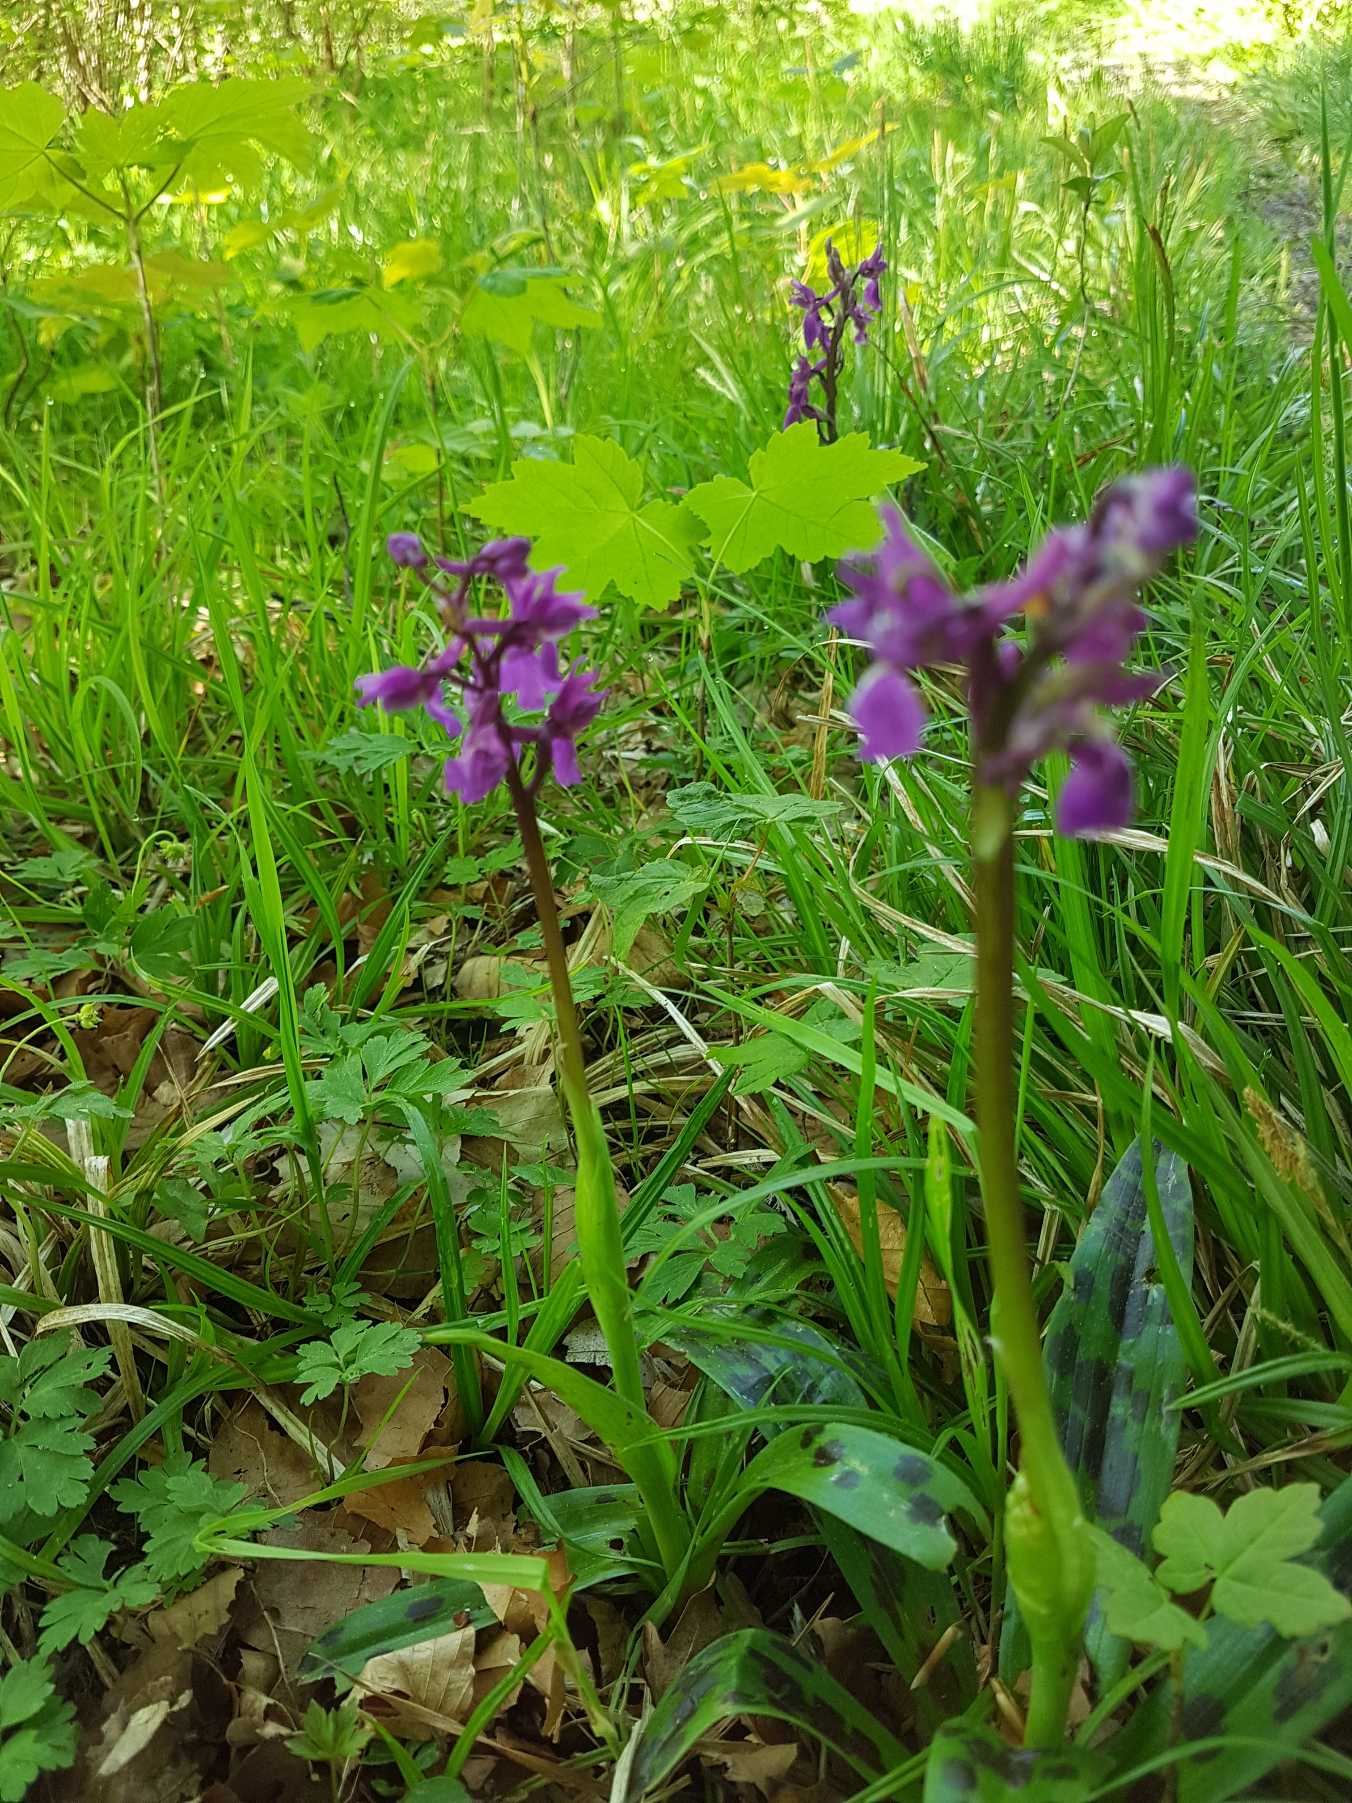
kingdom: Plantae
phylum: Tracheophyta
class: Liliopsida
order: Asparagales
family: Orchidaceae
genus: Orchis
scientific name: Orchis mascula
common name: Tyndakset gøgeurt
